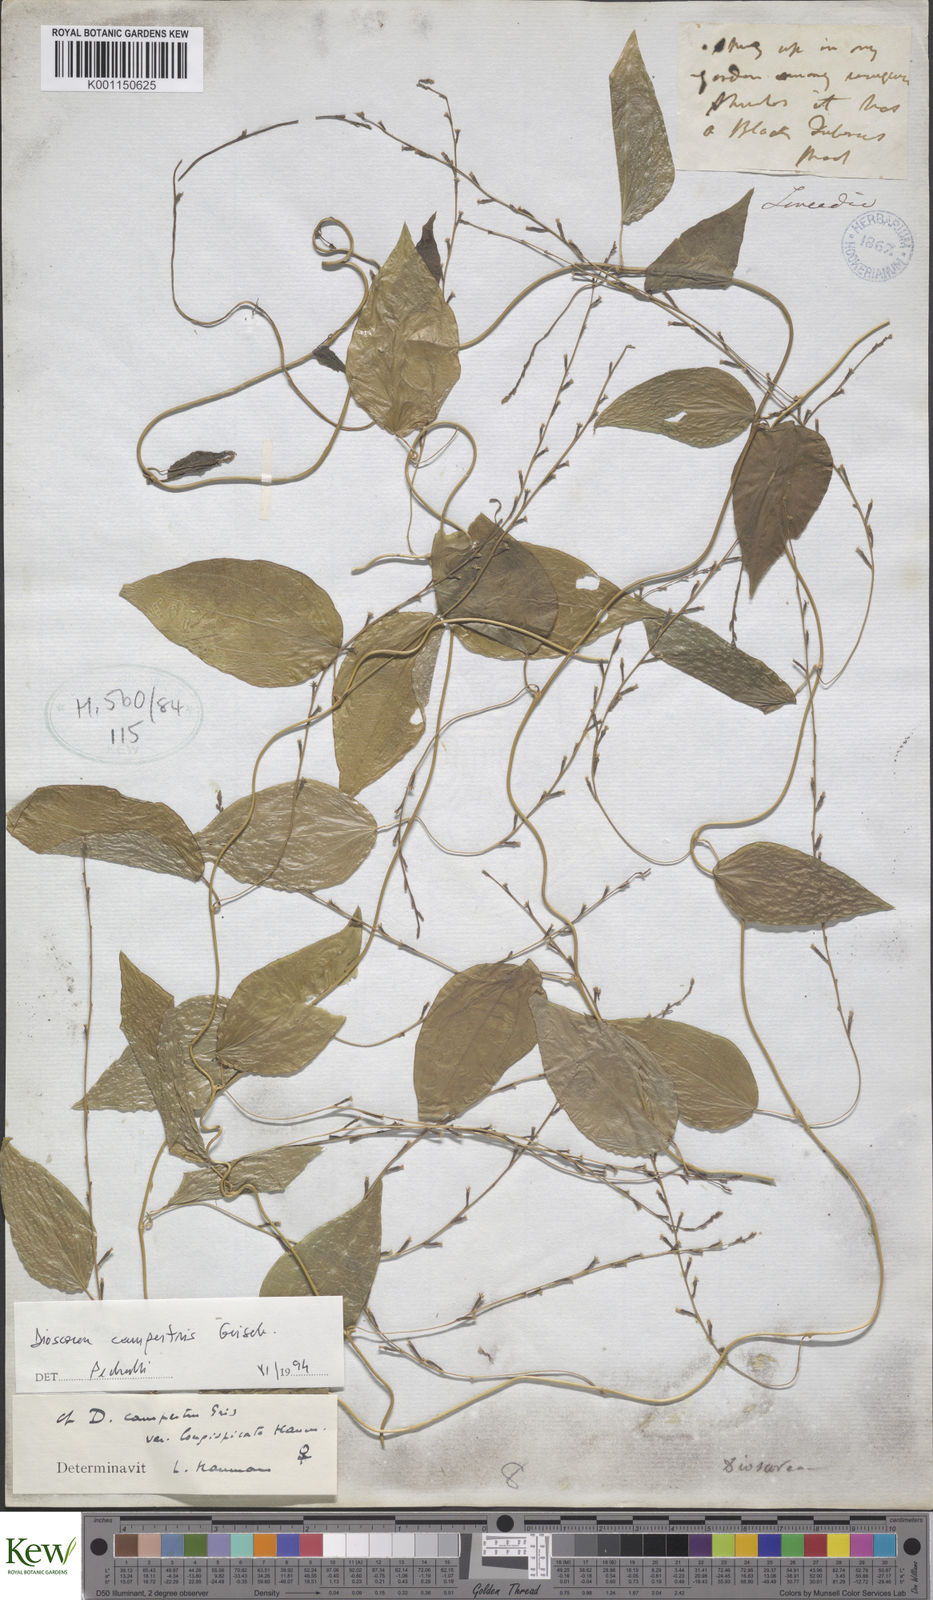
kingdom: Plantae
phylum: Tracheophyta
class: Liliopsida
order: Dioscoreales
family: Dioscoreaceae
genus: Dioscorea
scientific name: Dioscorea campestris
